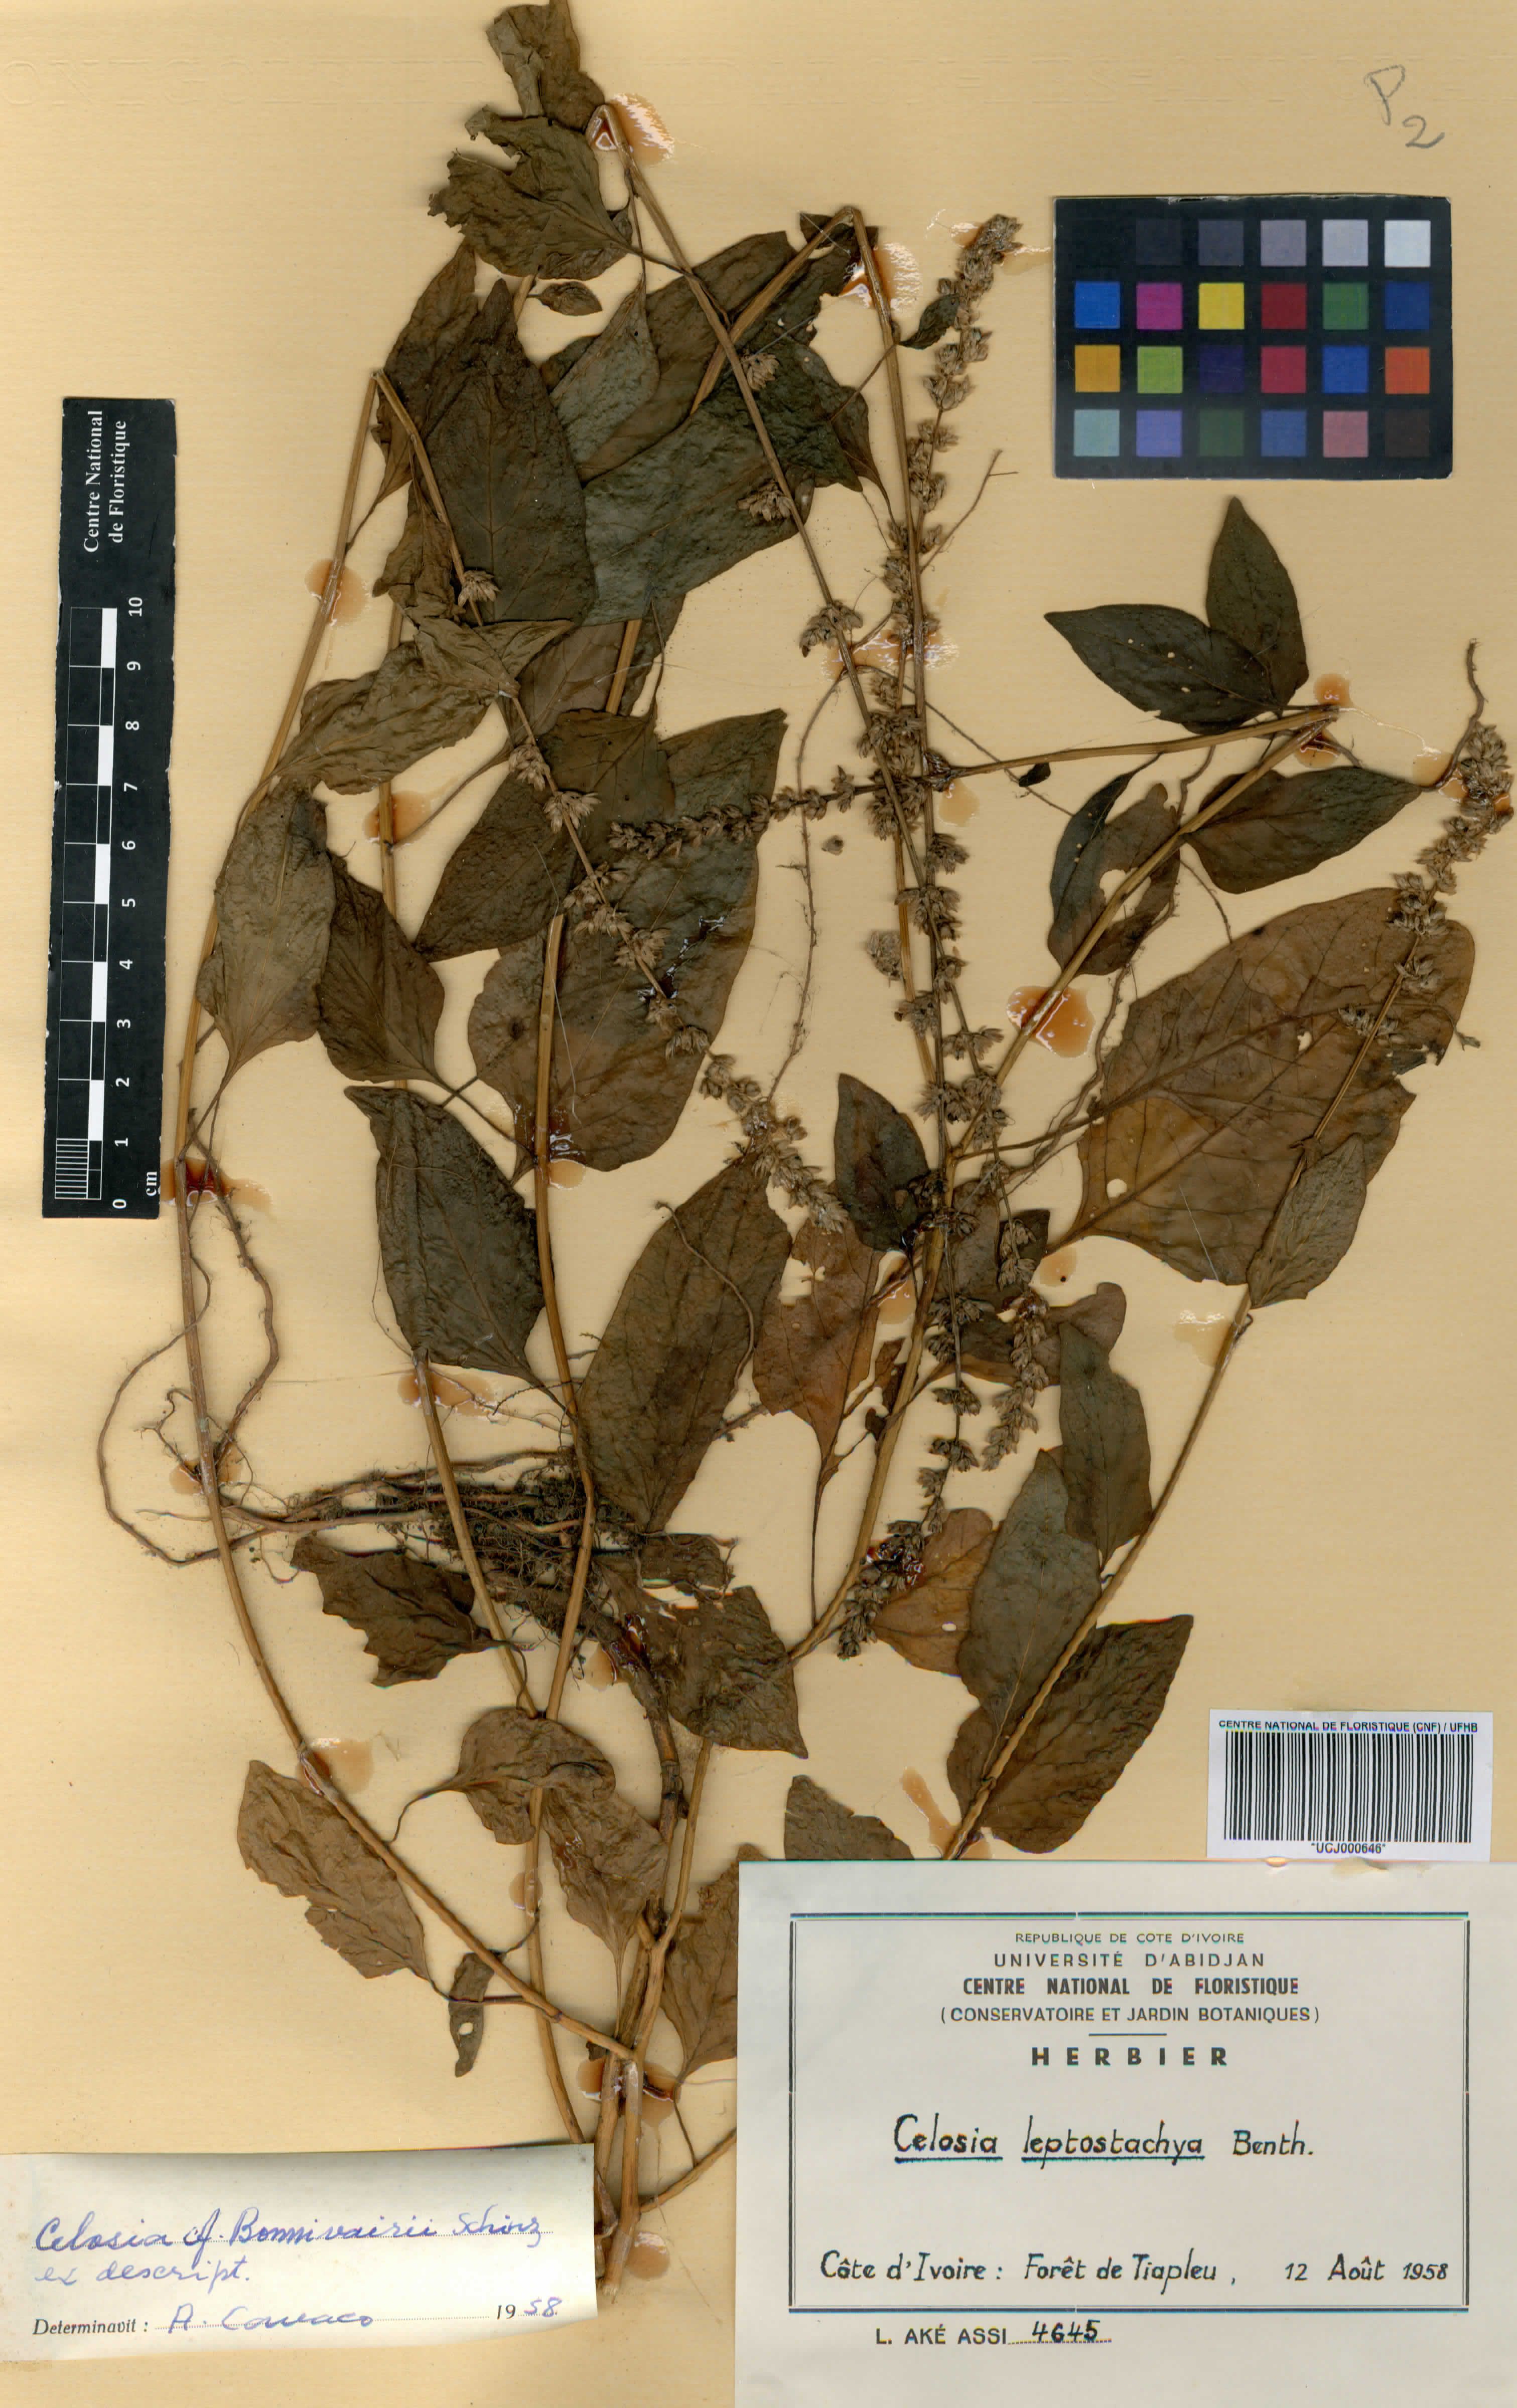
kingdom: Plantae
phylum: Tracheophyta
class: Magnoliopsida
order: Caryophyllales
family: Amaranthaceae
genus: Celosia
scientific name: Celosia leptostachya
